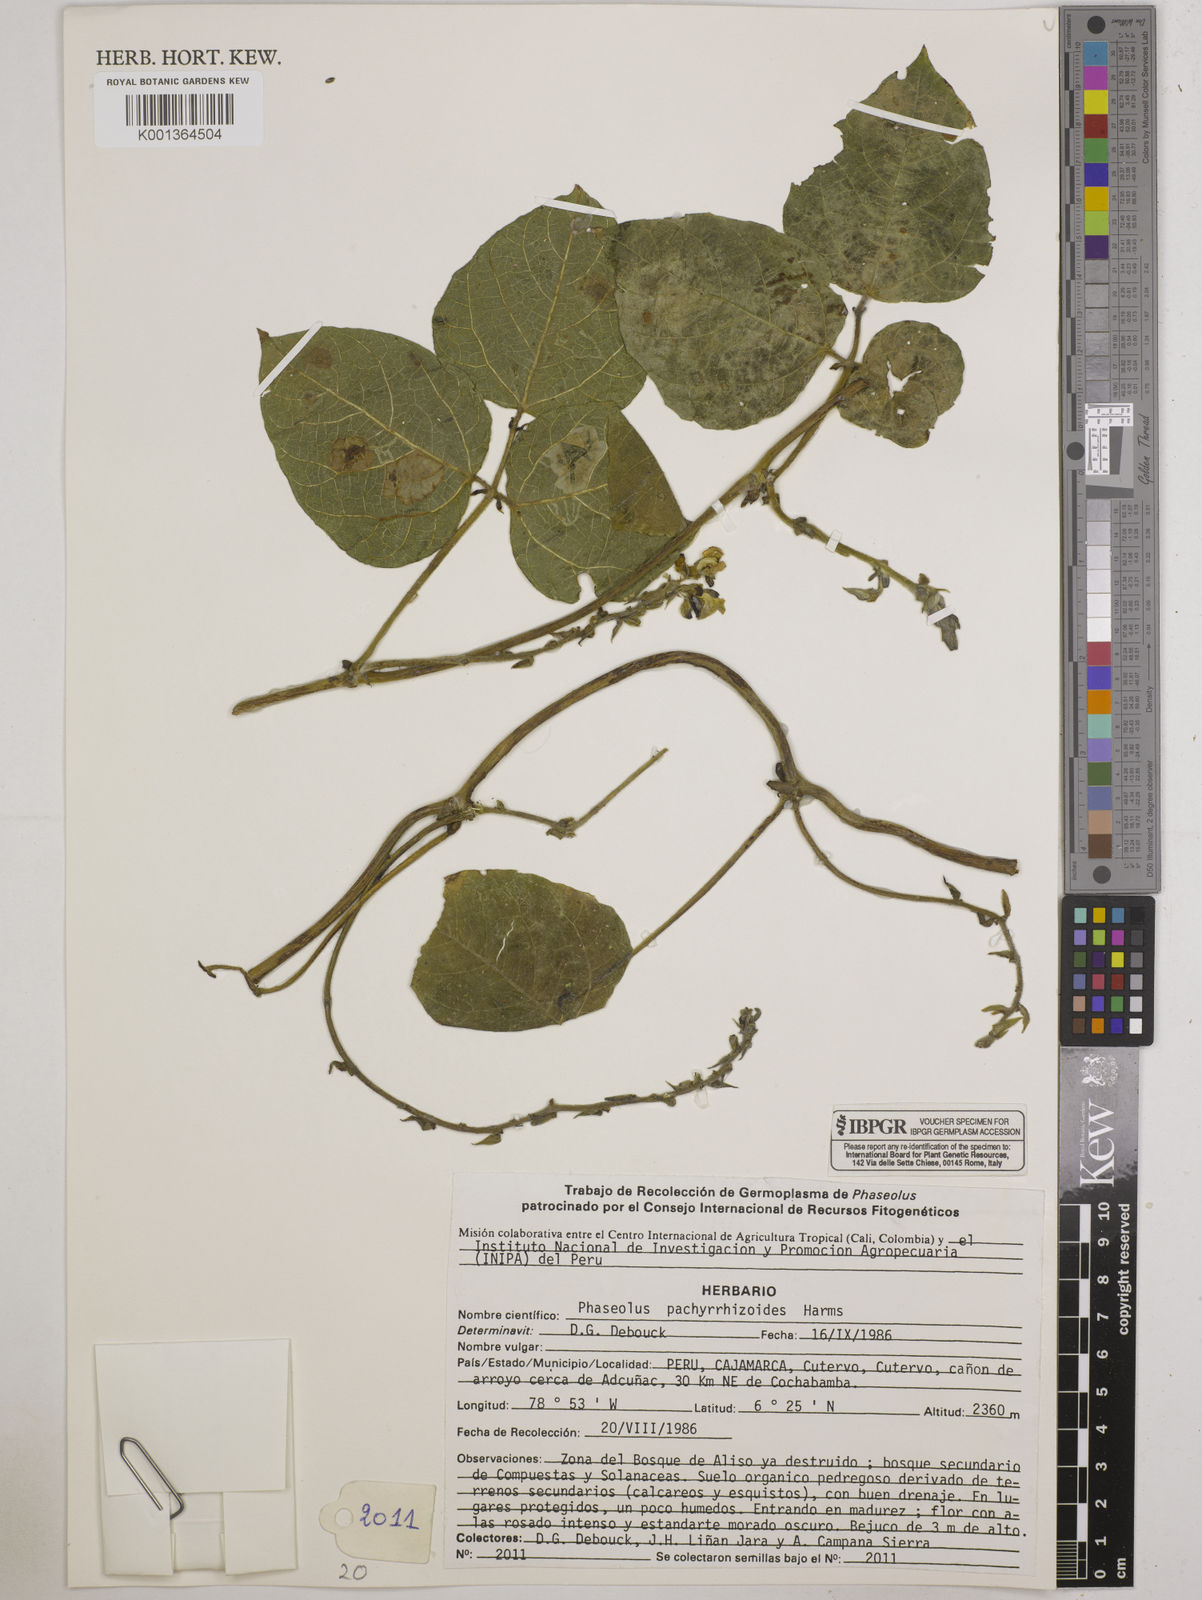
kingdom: Plantae
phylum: Tracheophyta
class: Magnoliopsida
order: Fabales
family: Fabaceae
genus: Ramirezella
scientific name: Ramirezella strobilophora
